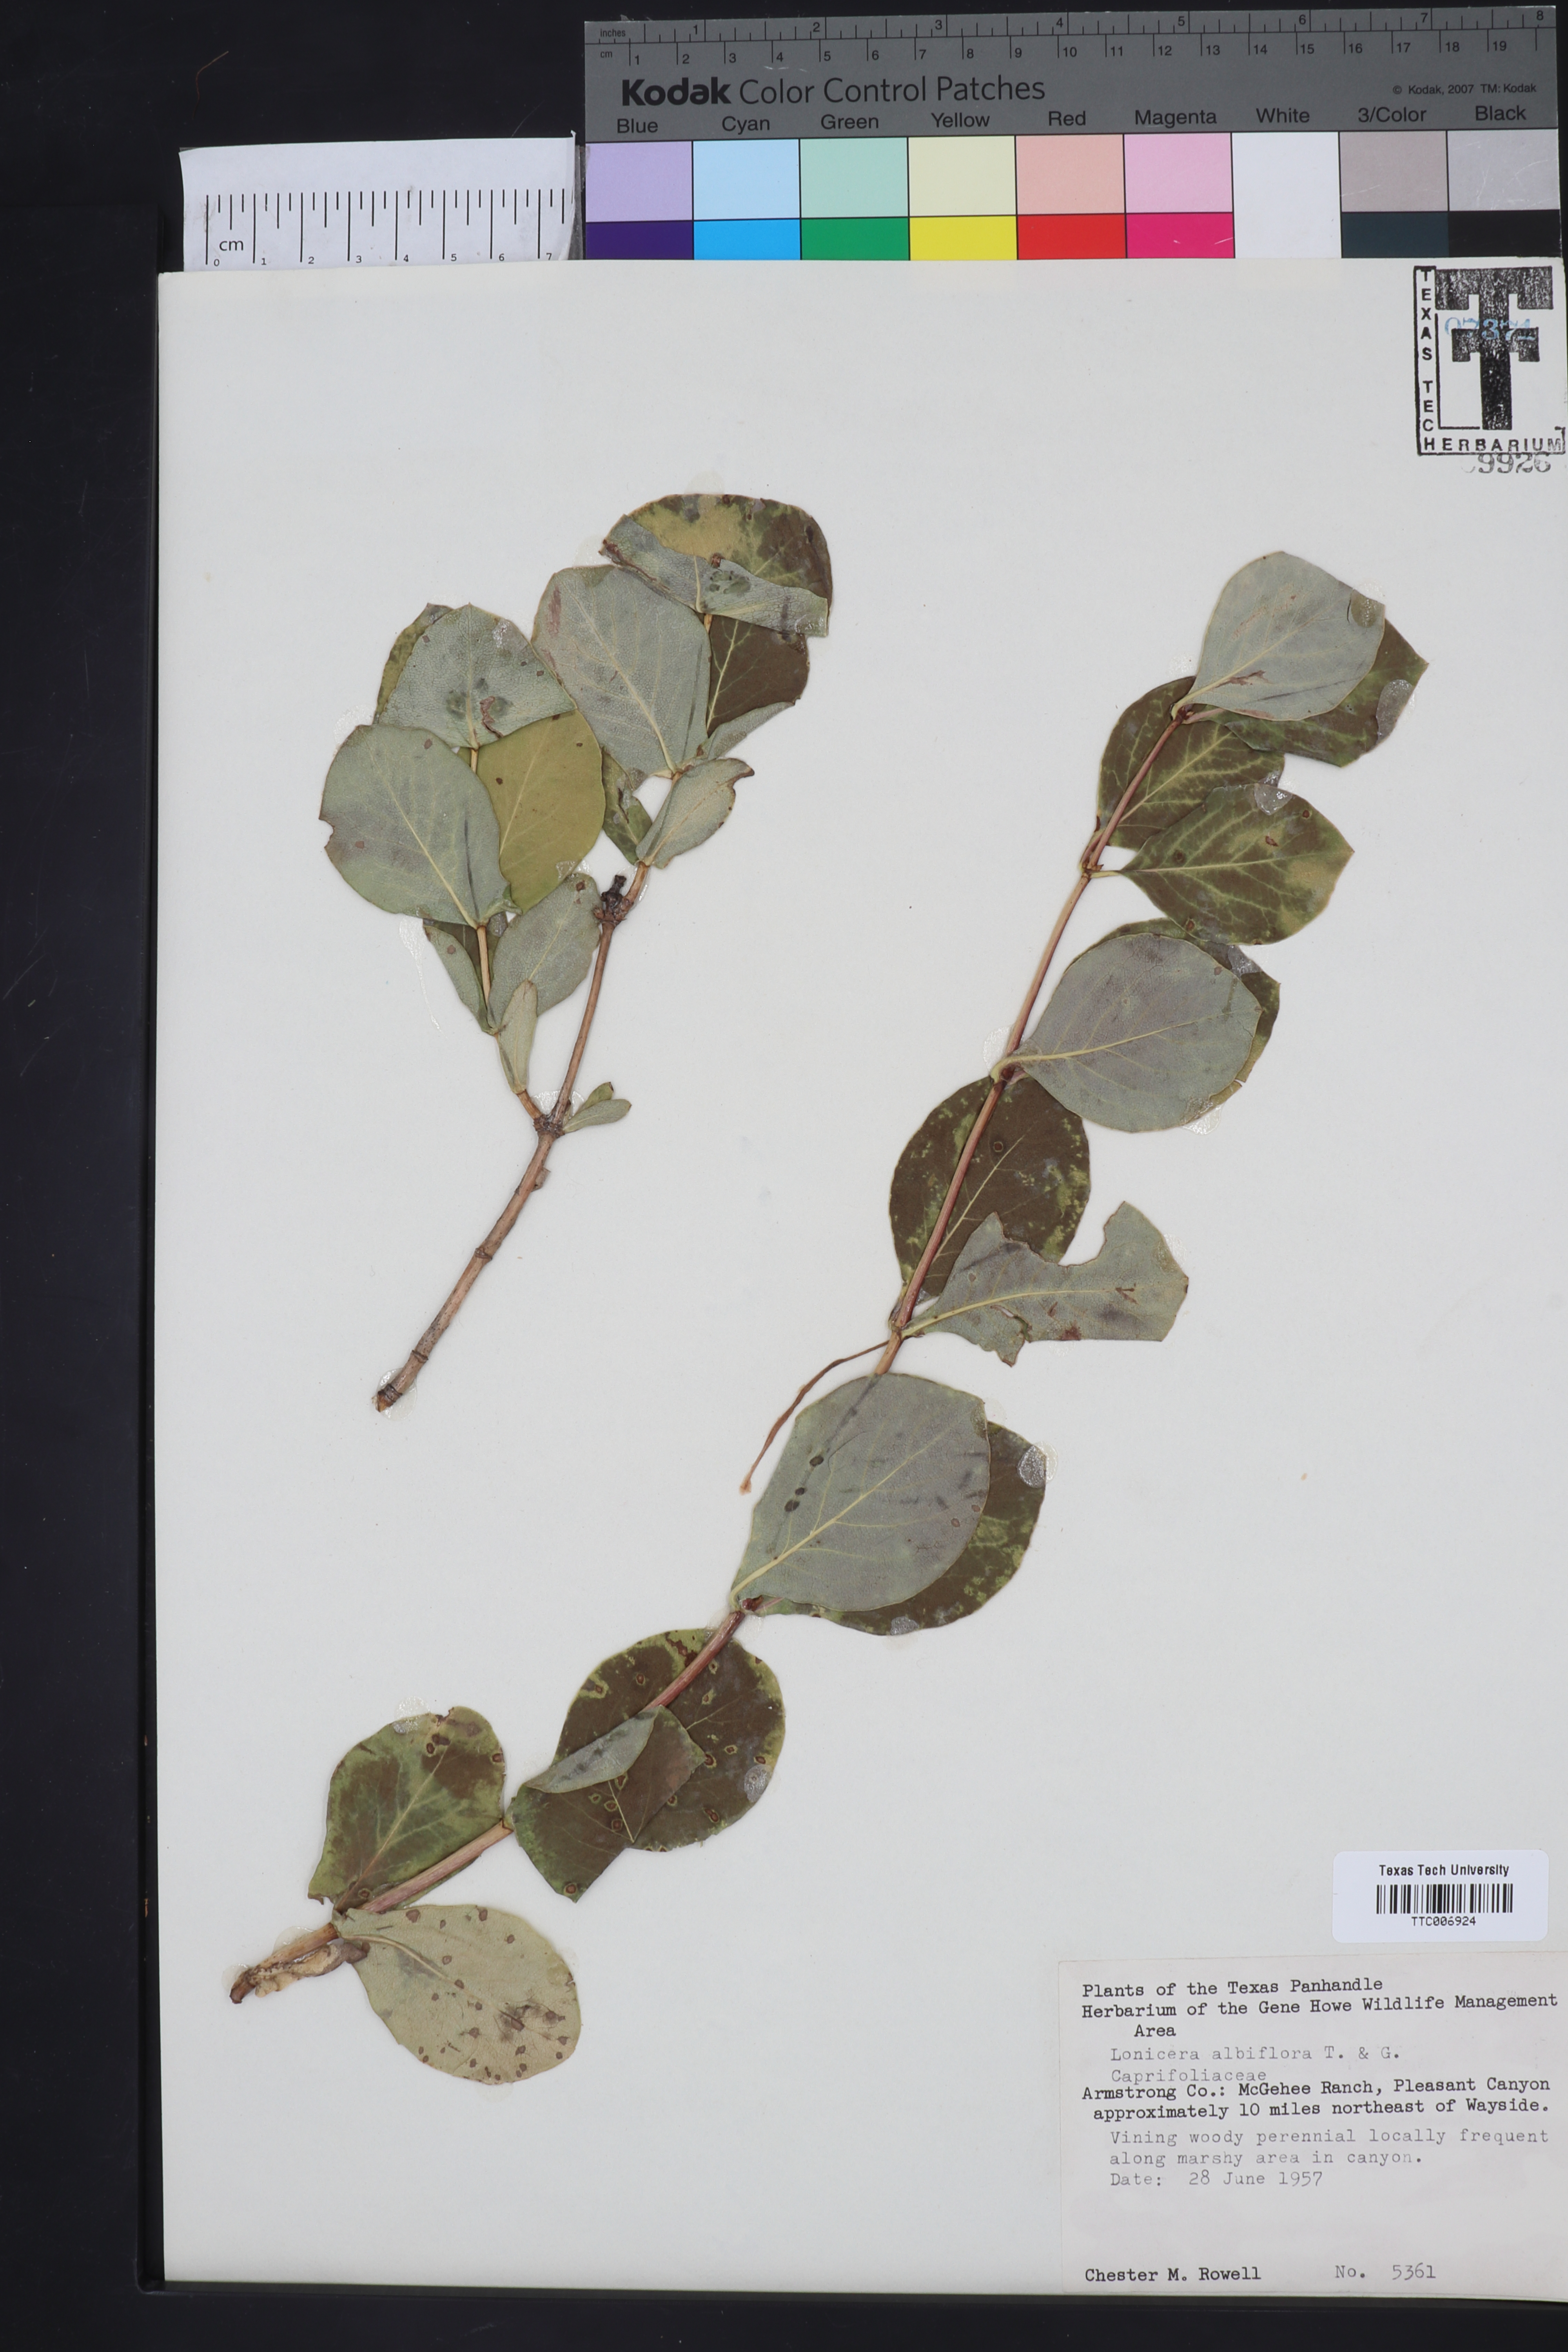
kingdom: Plantae
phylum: Tracheophyta
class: Magnoliopsida
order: Dipsacales
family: Caprifoliaceae
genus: Lonicera
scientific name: Lonicera albiflora
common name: White honeysuckle
